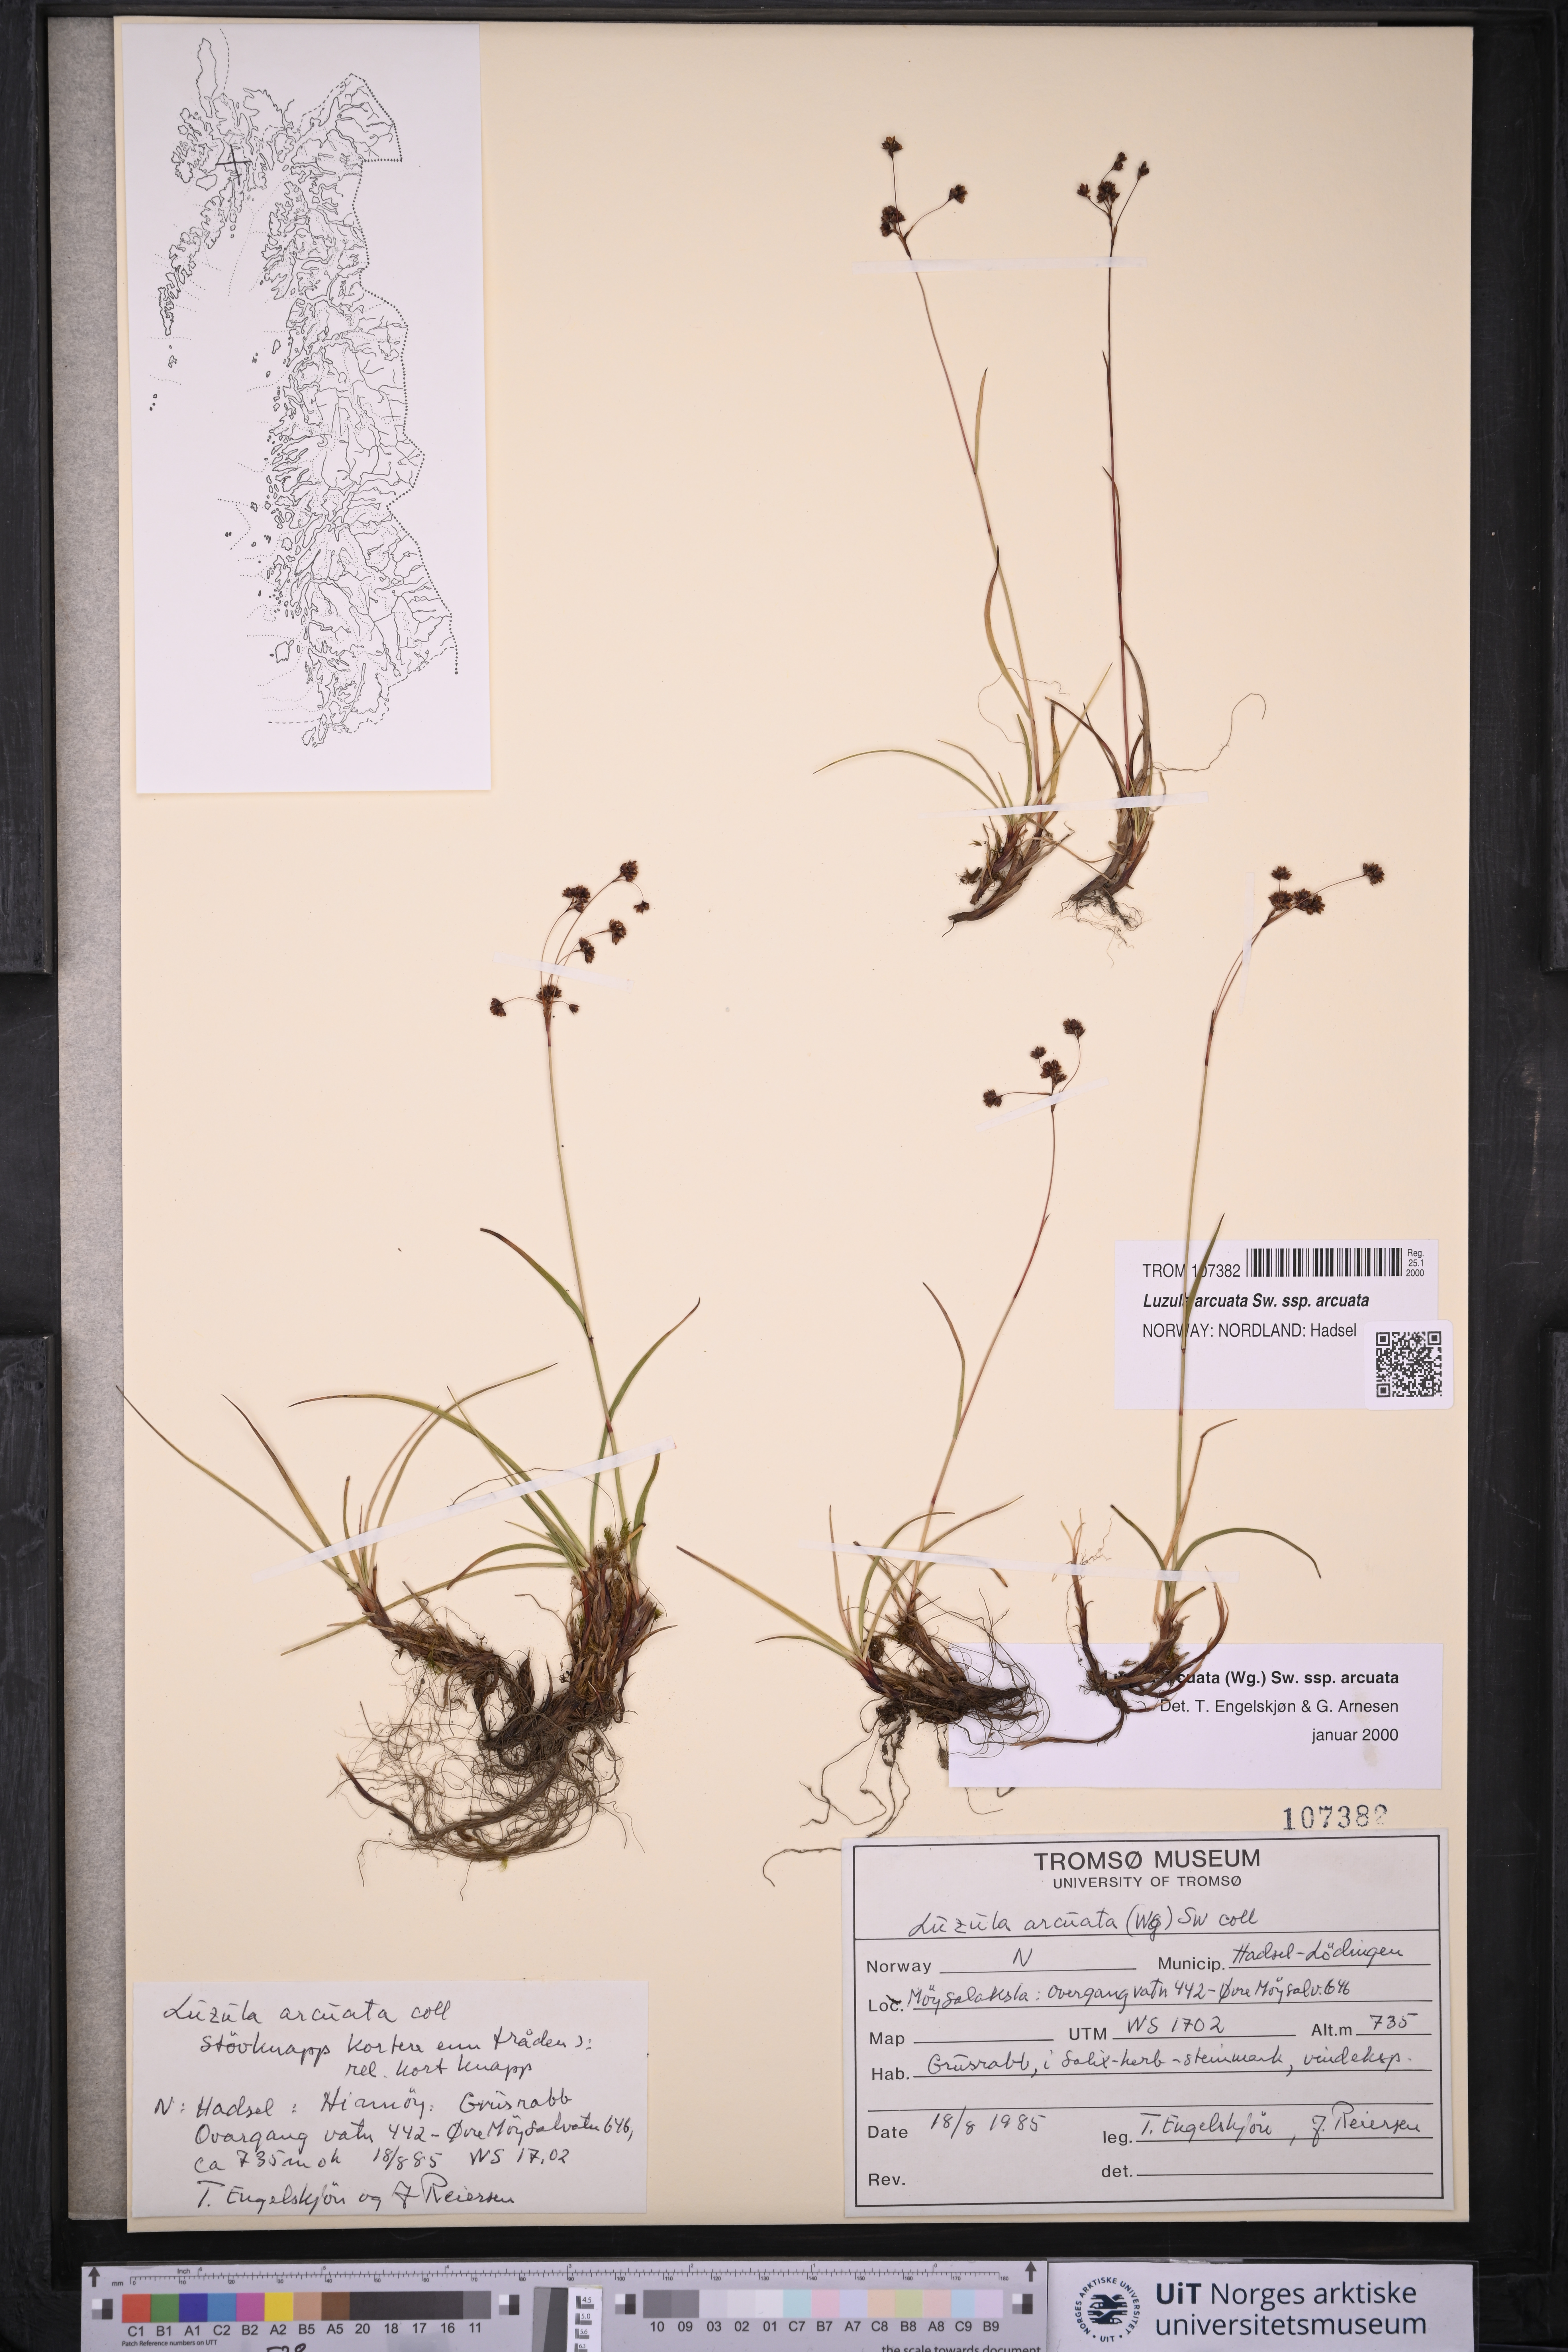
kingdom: Plantae
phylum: Tracheophyta
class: Liliopsida
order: Poales
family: Juncaceae
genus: Luzula
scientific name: Luzula arcuata
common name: Curved wood-rush
